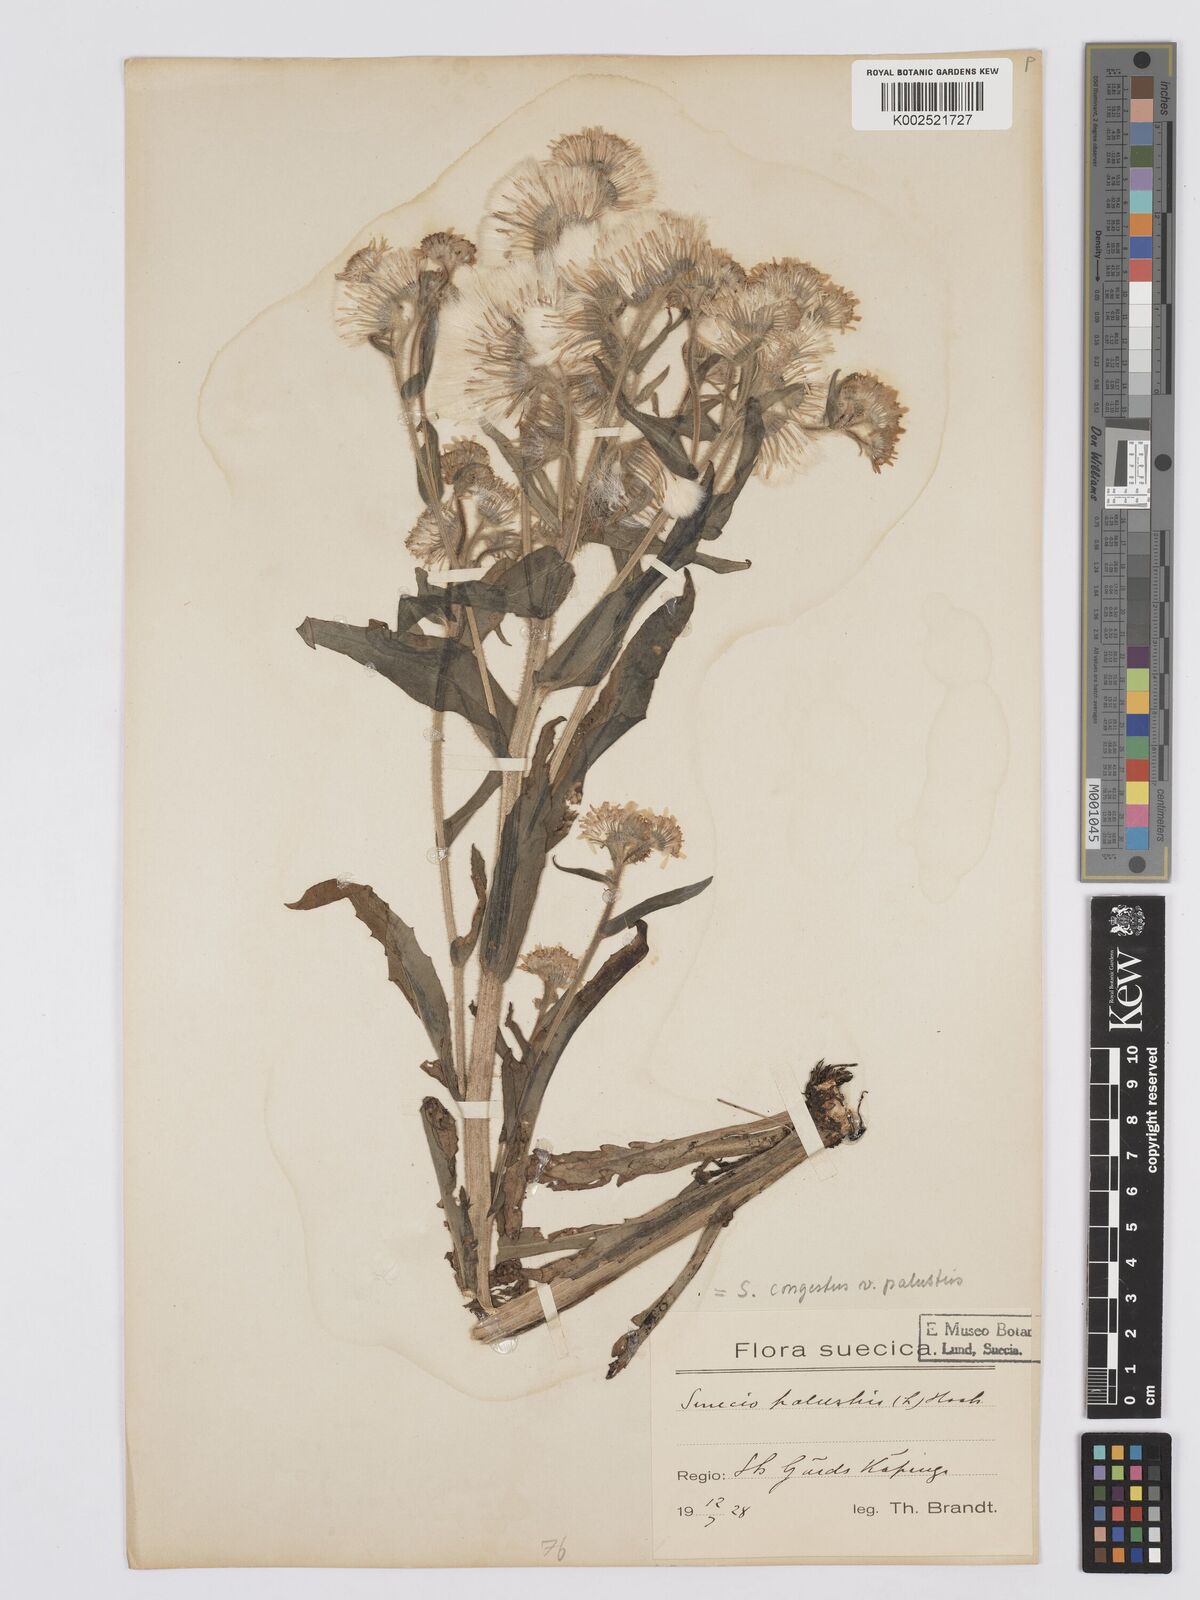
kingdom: Plantae
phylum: Tracheophyta
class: Magnoliopsida
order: Asterales
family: Asteraceae
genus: Tephroseris
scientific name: Tephroseris palustris
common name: Marsh fleawort
